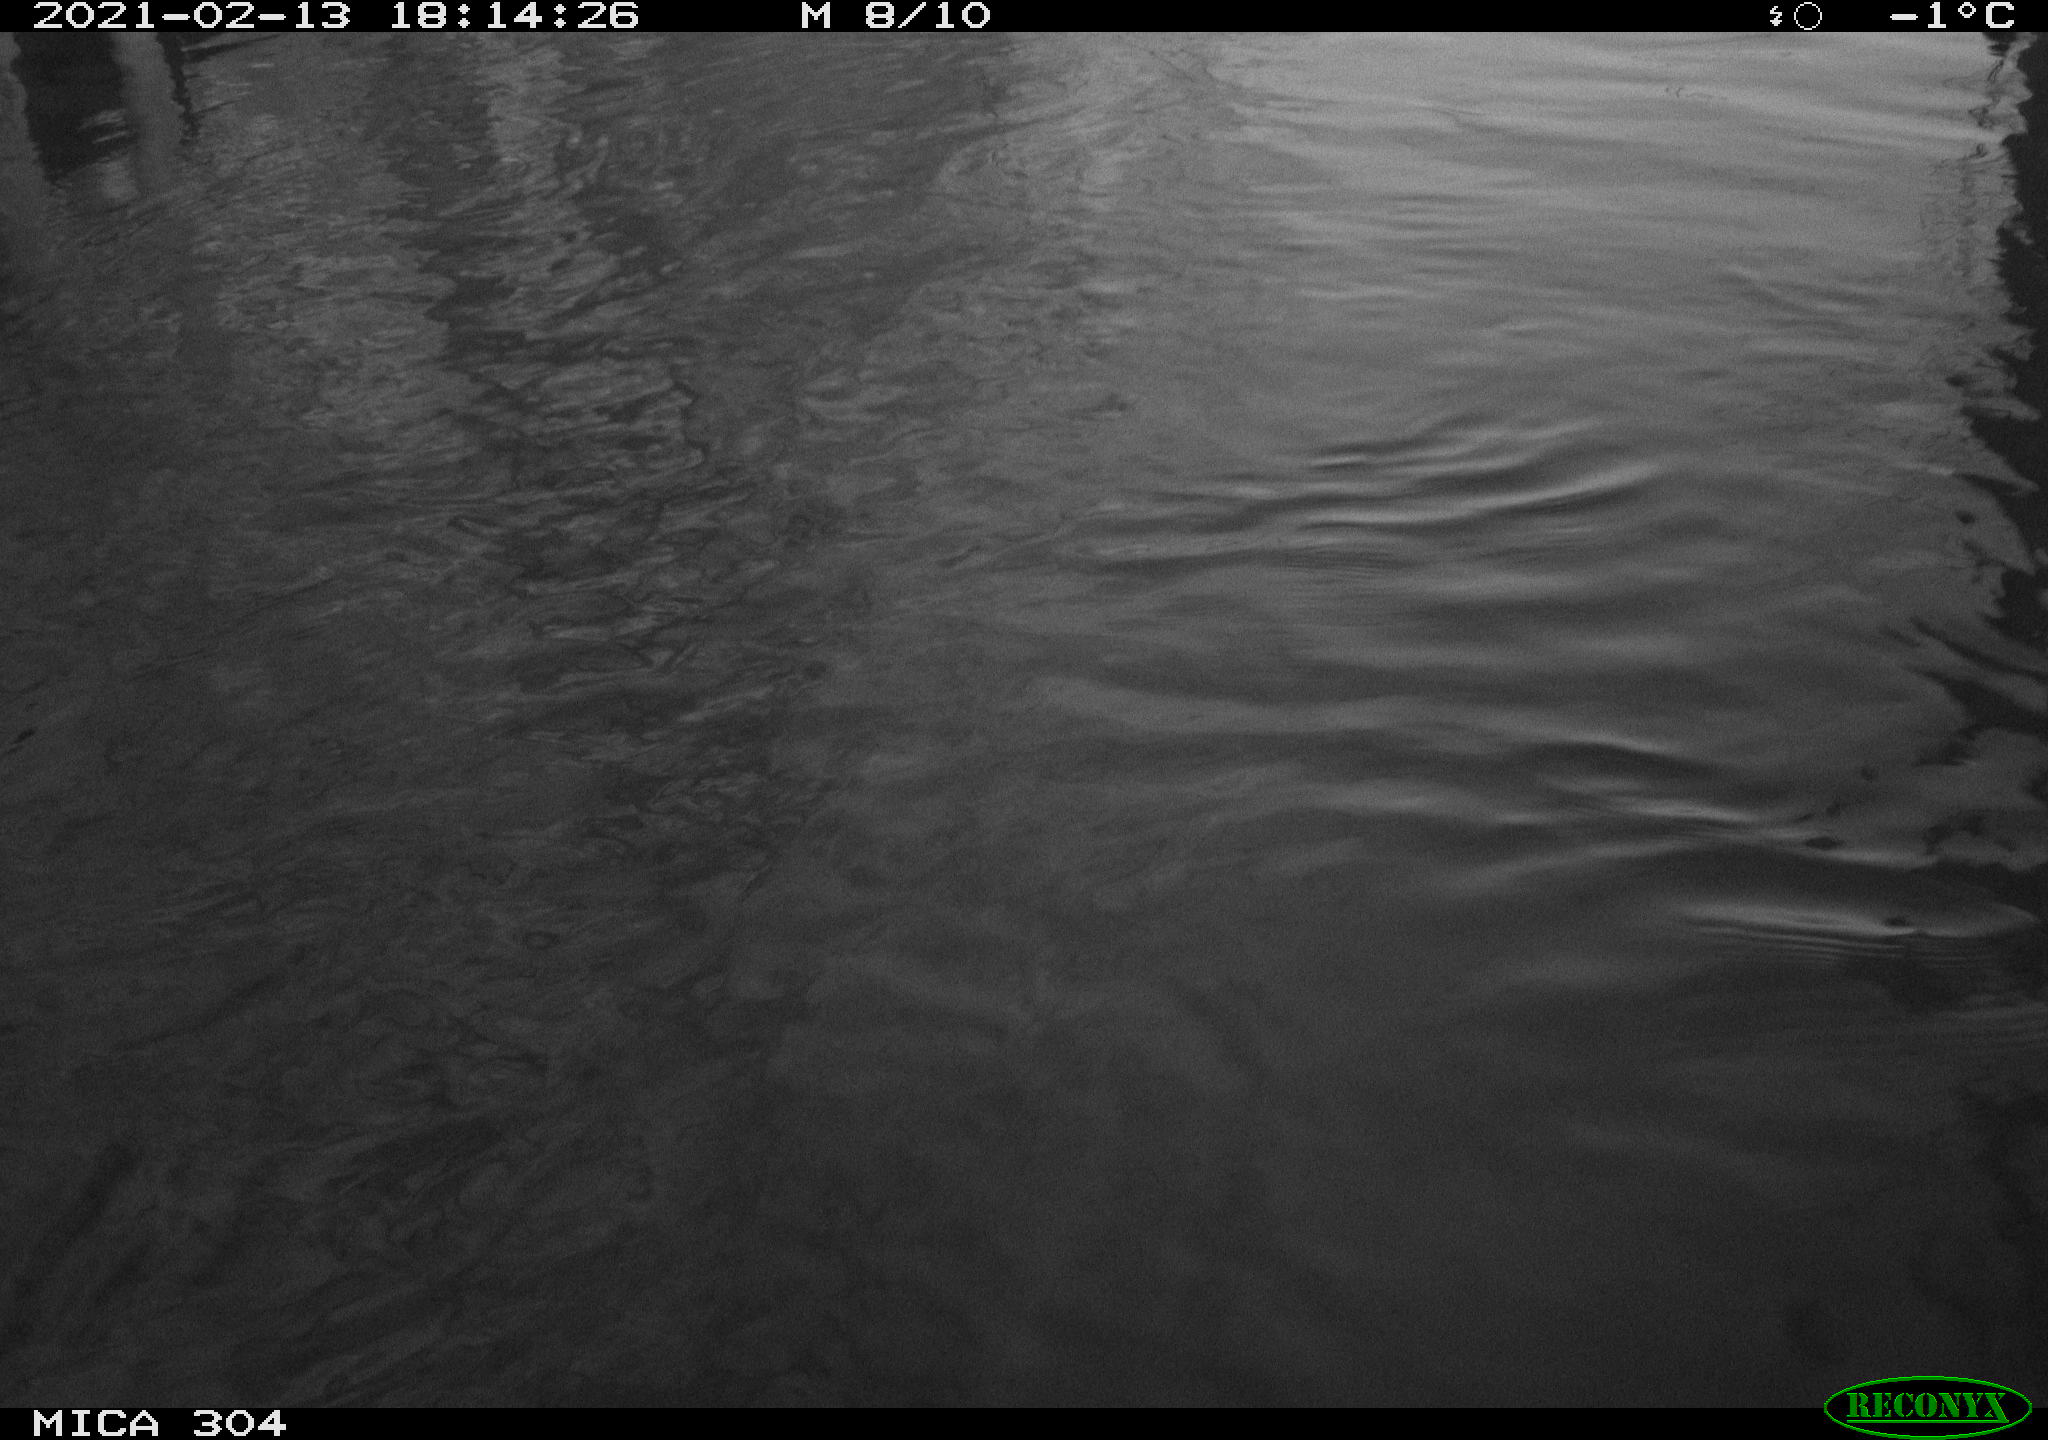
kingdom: Animalia
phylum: Chordata
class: Aves
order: Gruiformes
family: Rallidae
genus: Gallinula
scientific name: Gallinula chloropus
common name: Common moorhen
